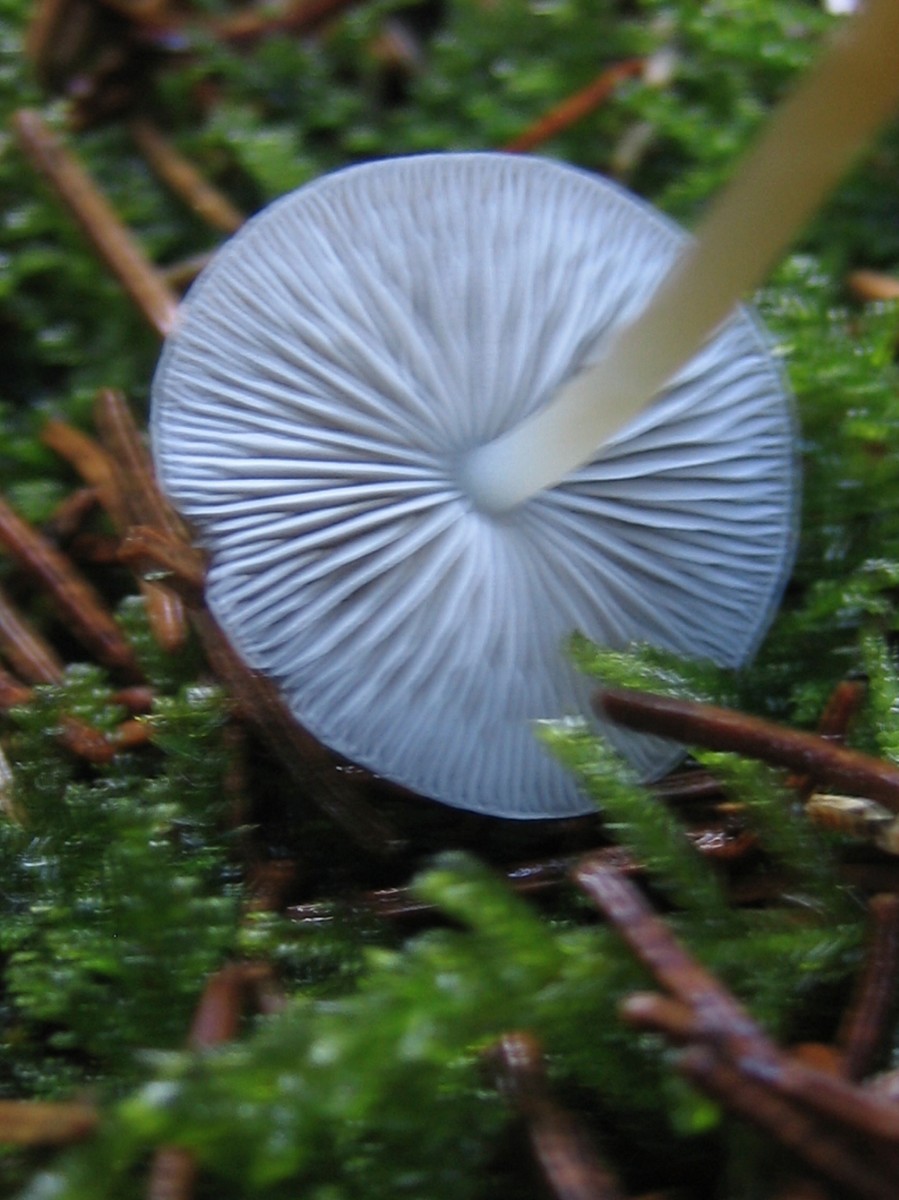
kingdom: Fungi
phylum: Basidiomycota
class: Agaricomycetes
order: Agaricales
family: Physalacriaceae
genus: Strobilurus
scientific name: Strobilurus esculentus
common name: gran-koglehat
